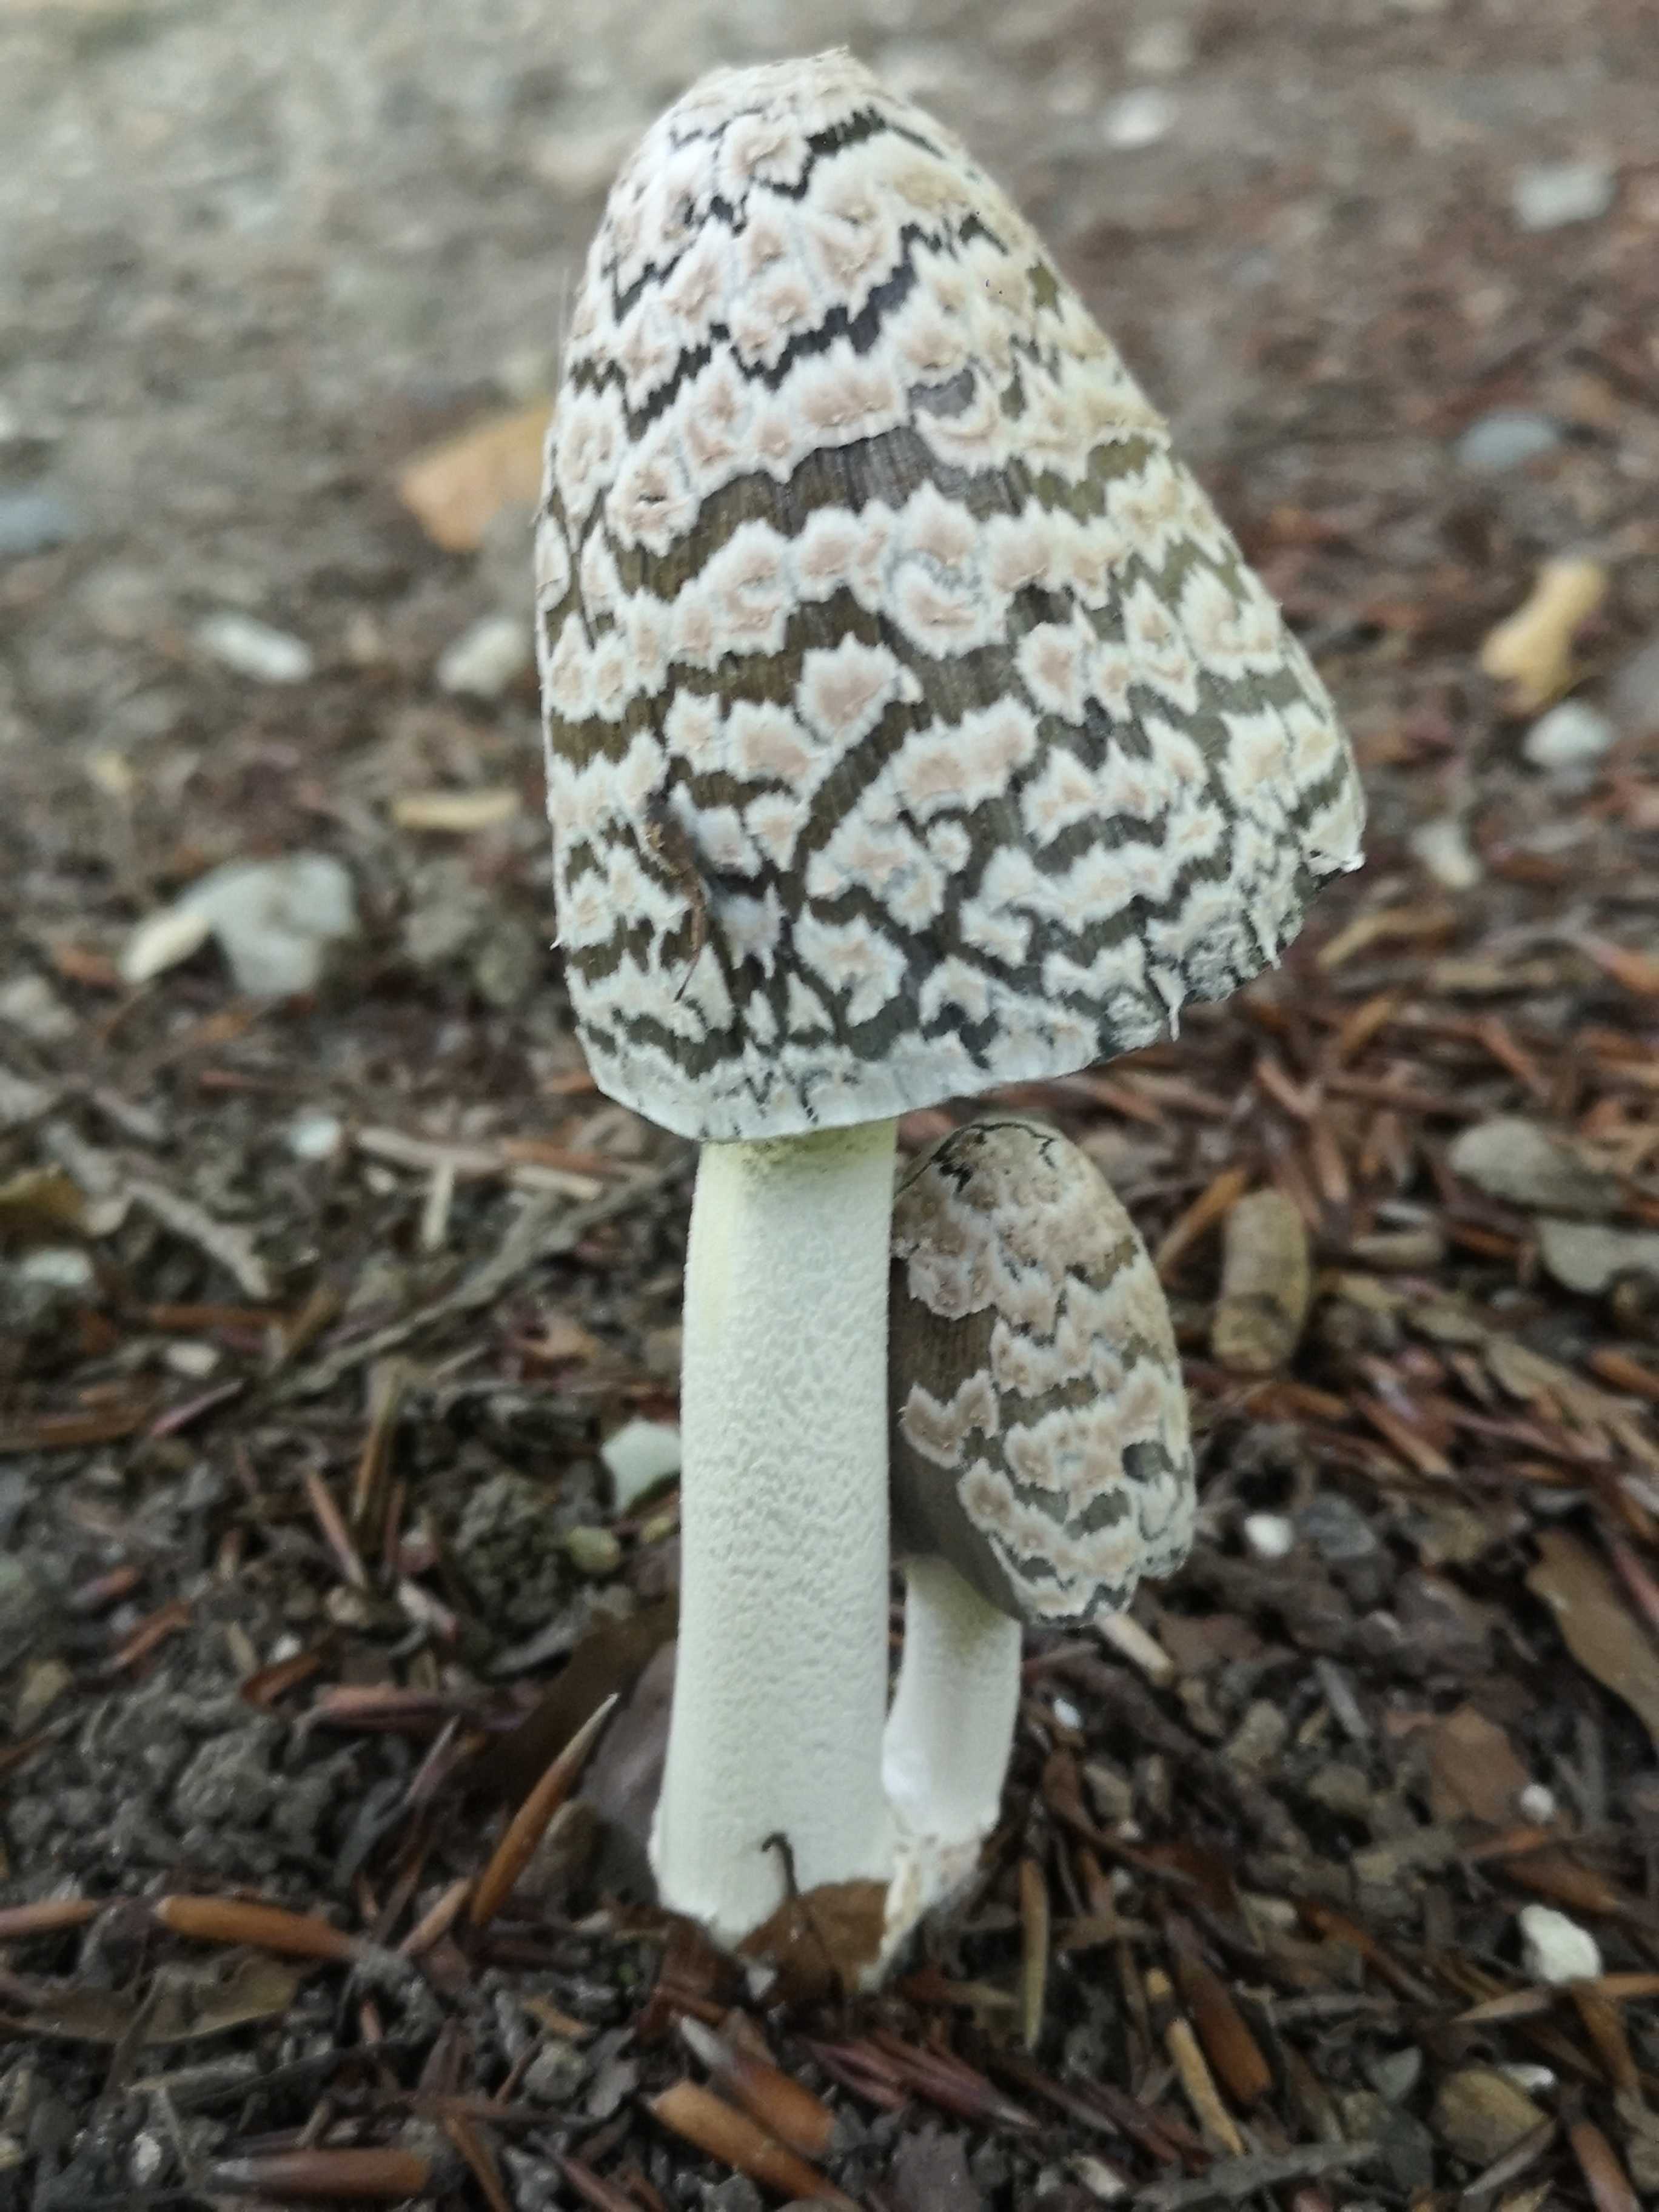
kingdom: Fungi
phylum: Basidiomycota
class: Agaricomycetes
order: Agaricales
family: Psathyrellaceae
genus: Coprinopsis
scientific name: Coprinopsis picacea
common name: skade-blækhat
